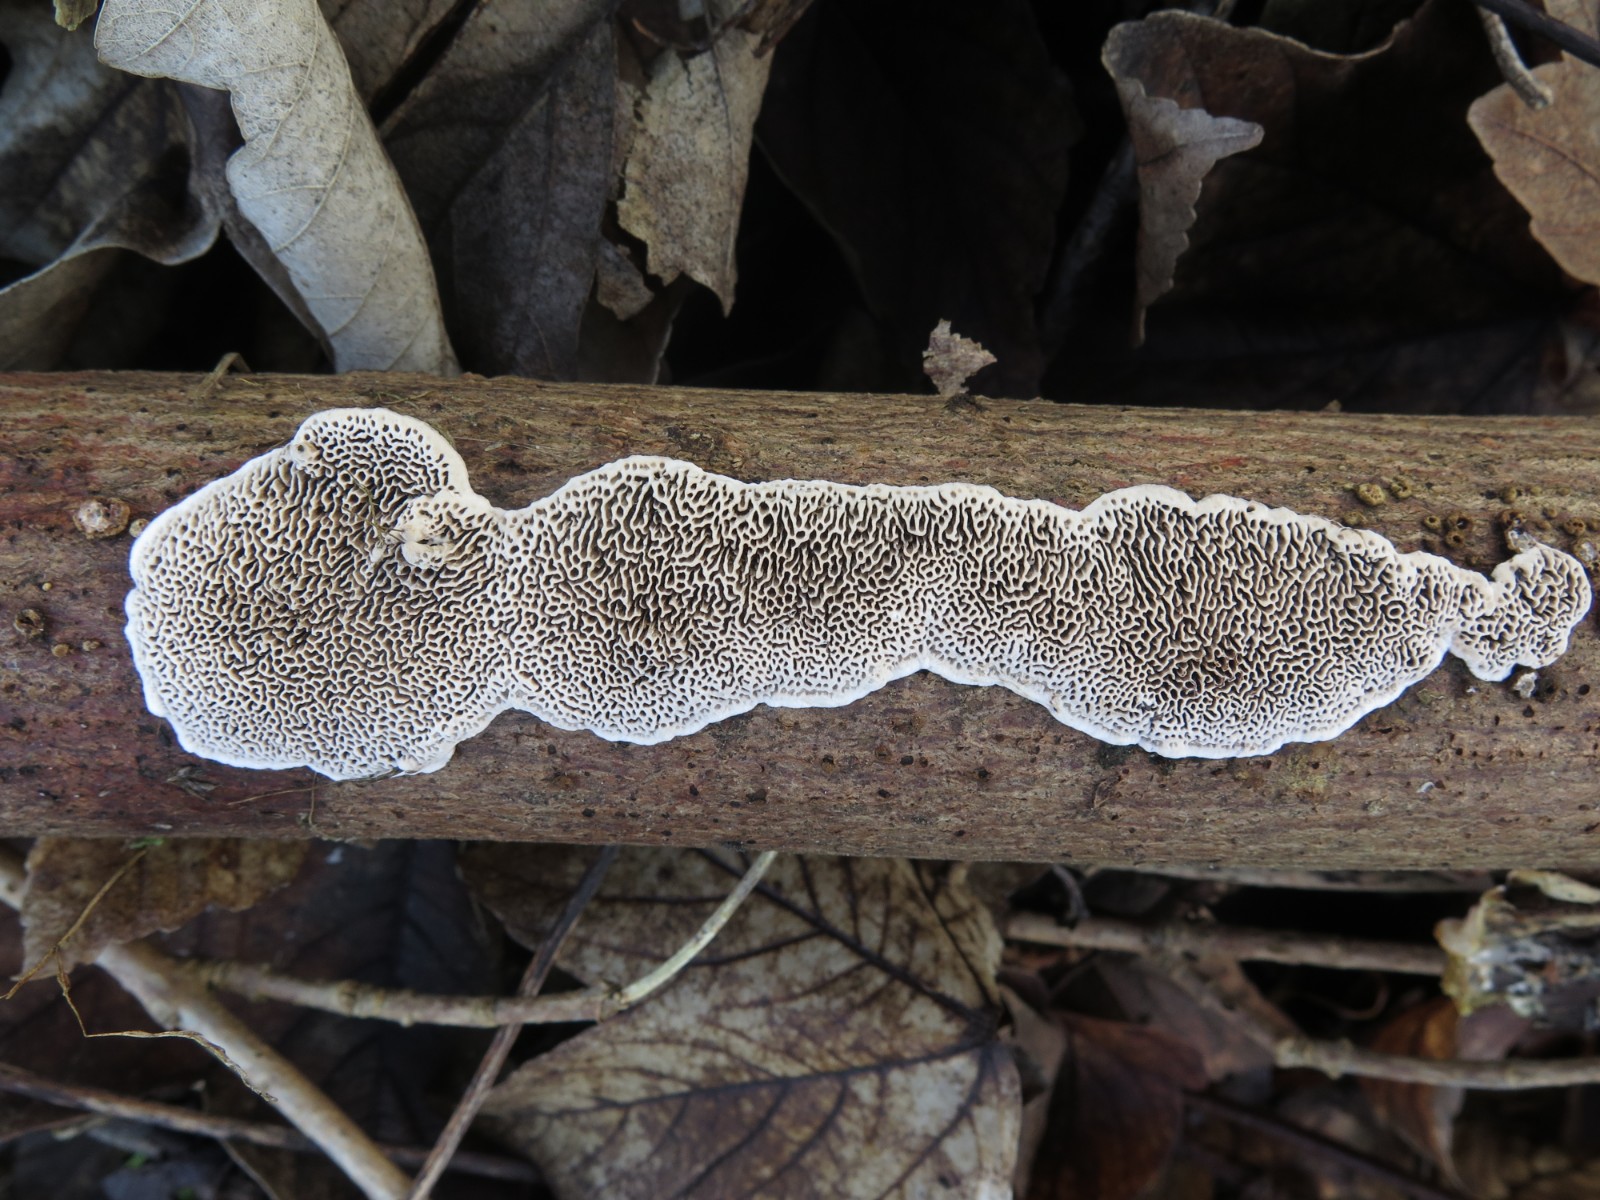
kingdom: Fungi
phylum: Basidiomycota
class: Agaricomycetes
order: Polyporales
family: Polyporaceae
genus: Podofomes
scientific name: Podofomes mollis
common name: blød begporesvamp
